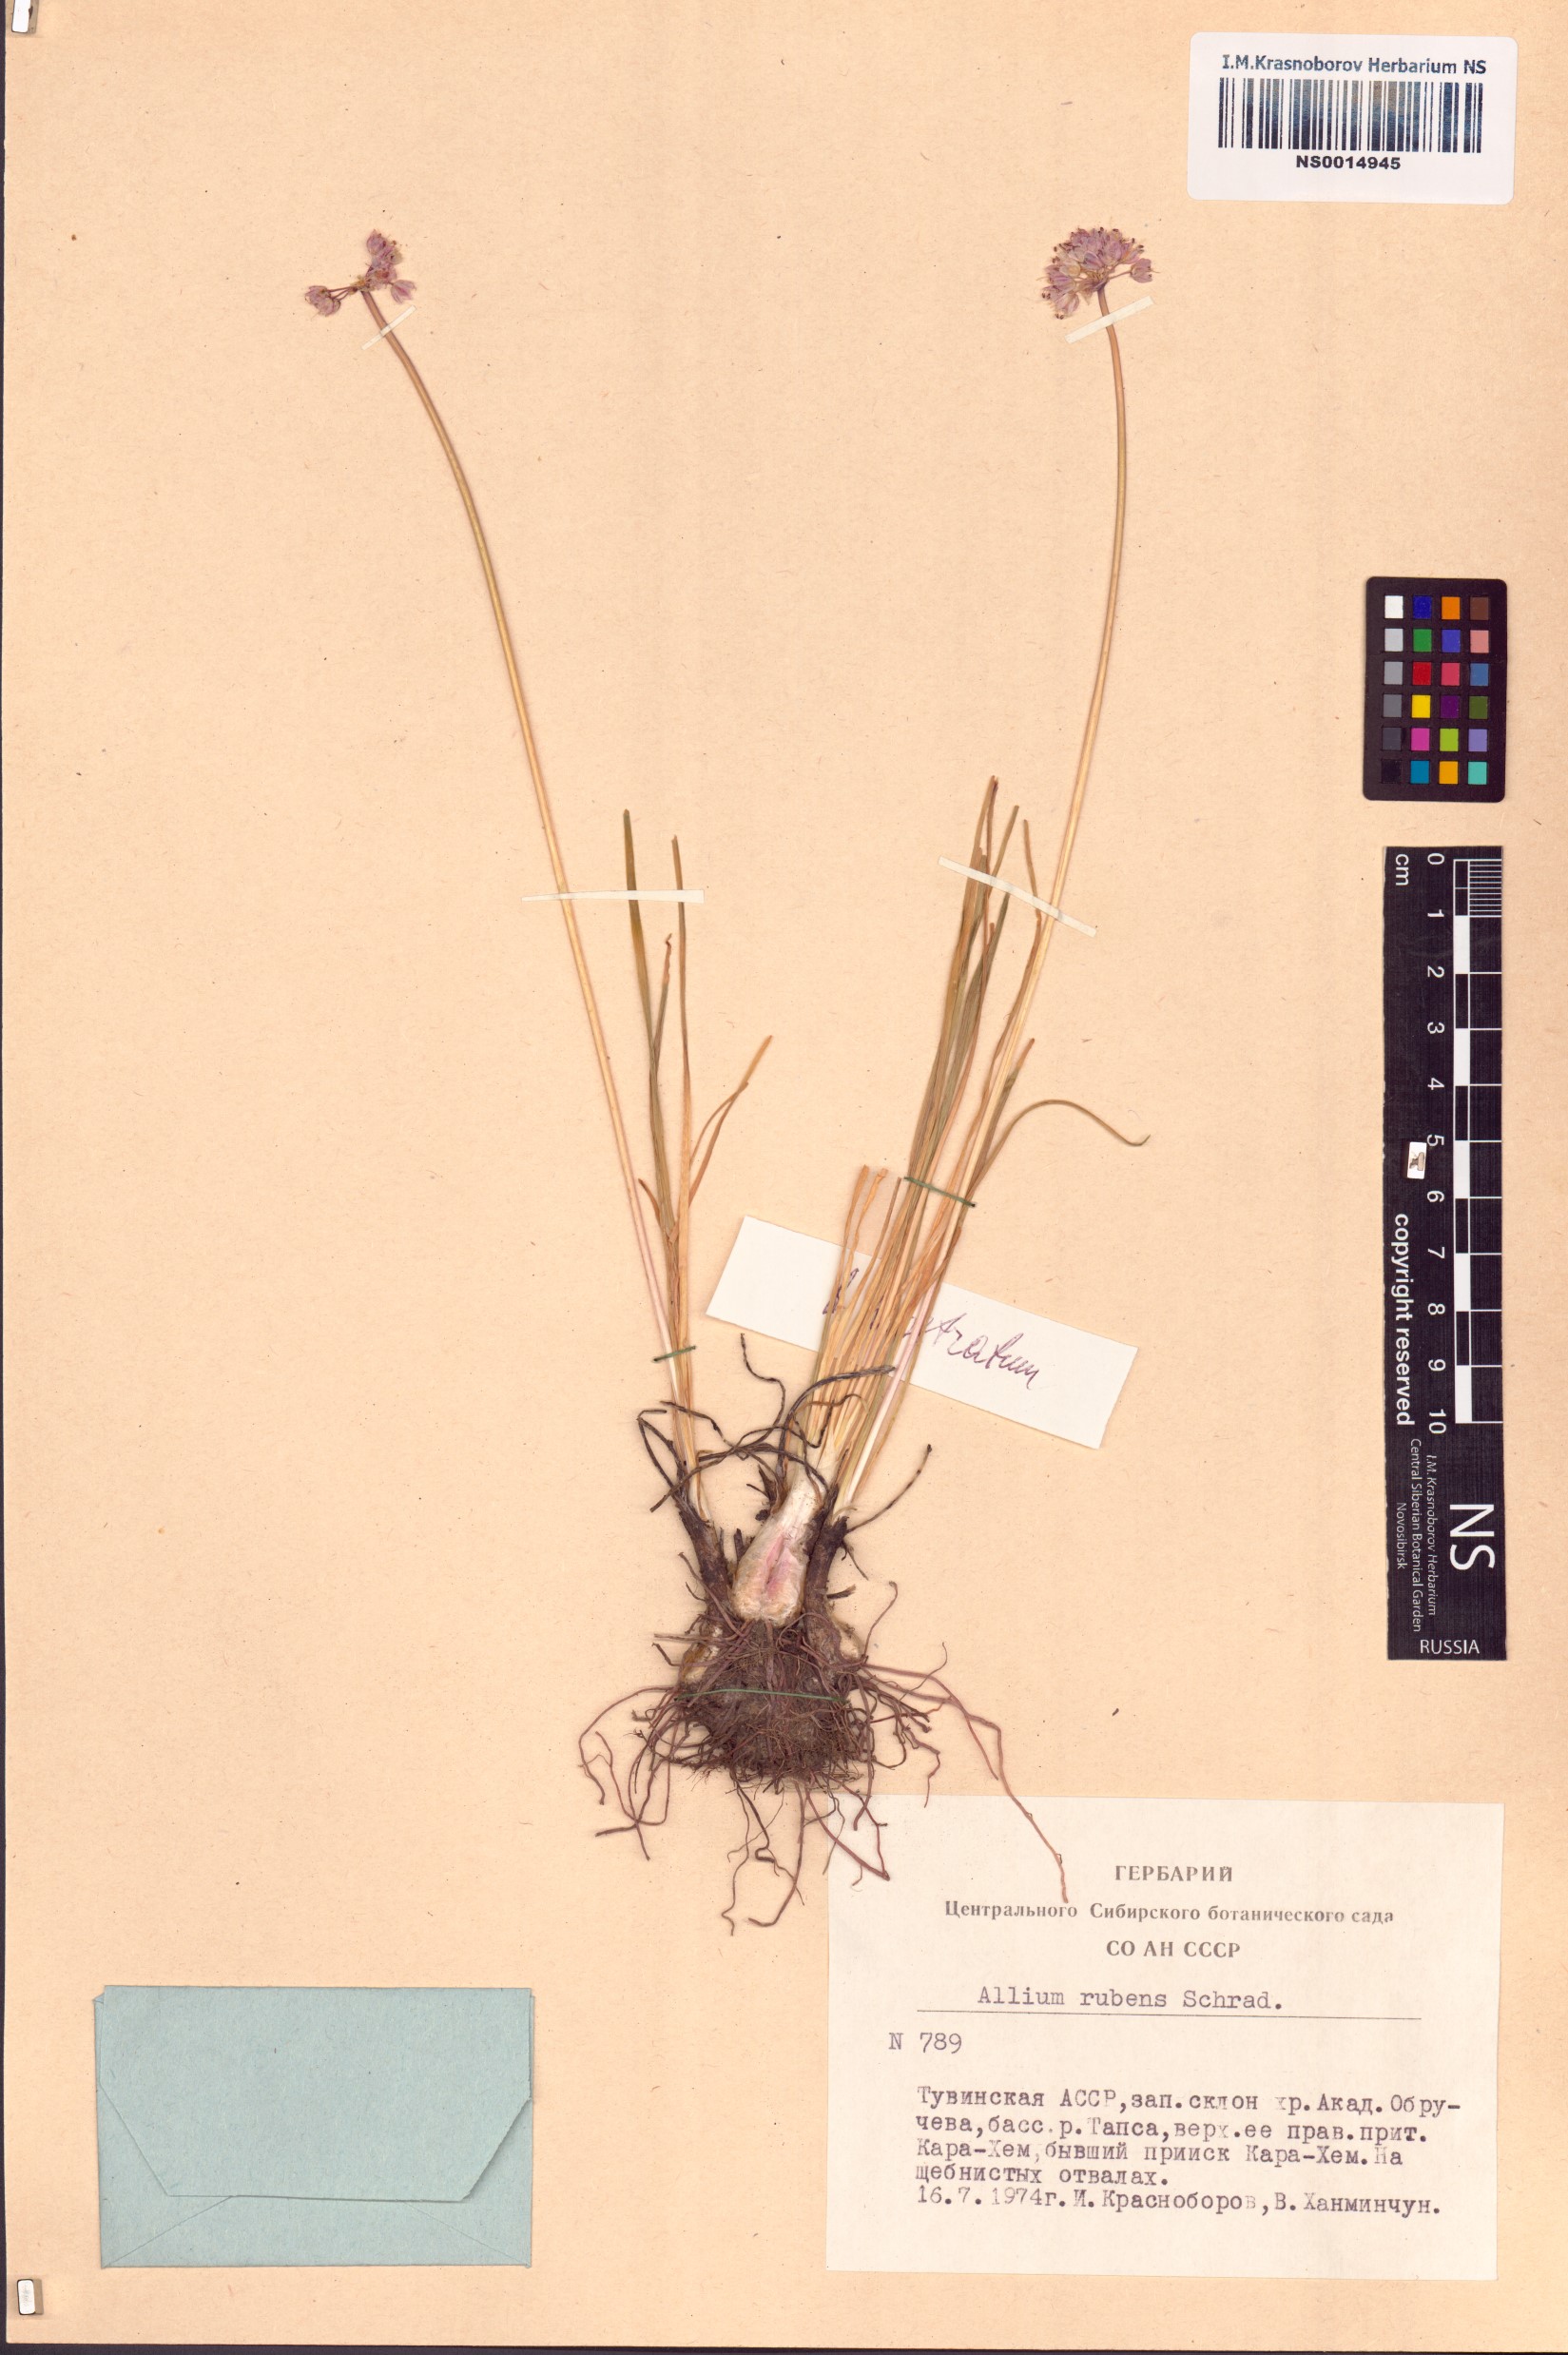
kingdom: Plantae
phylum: Tracheophyta
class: Liliopsida
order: Asparagales
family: Amaryllidaceae
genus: Allium
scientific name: Allium prostratum
